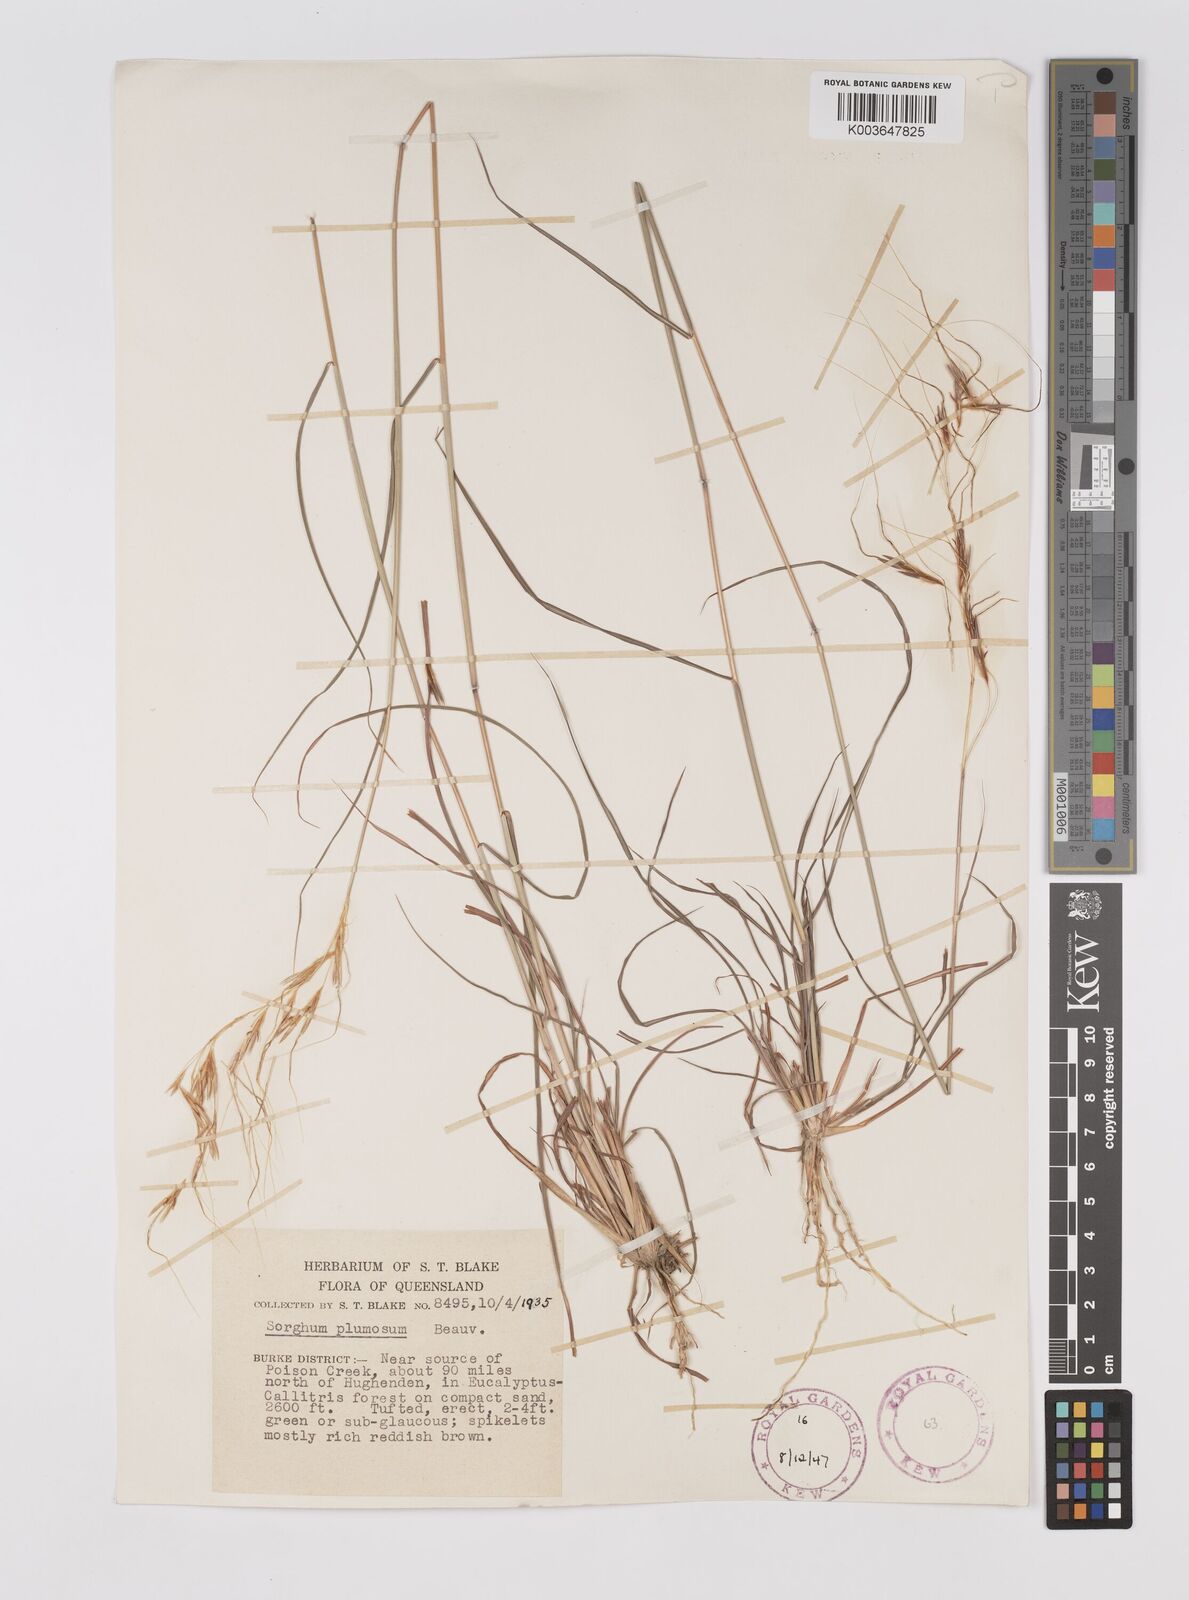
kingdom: Plantae
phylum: Tracheophyta
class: Liliopsida
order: Poales
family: Poaceae
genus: Sarga
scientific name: Sarga plumosa
